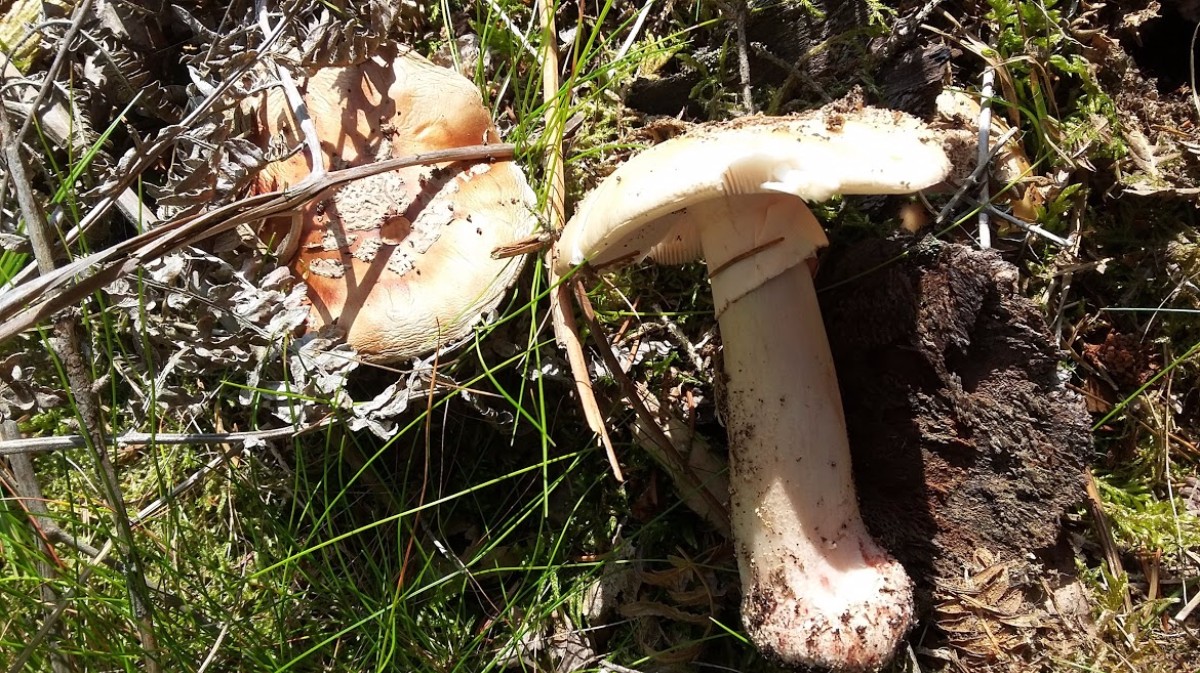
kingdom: Fungi
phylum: Basidiomycota
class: Agaricomycetes
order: Agaricales
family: Amanitaceae
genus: Amanita
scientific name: Amanita rubescens
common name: rødmende fluesvamp
